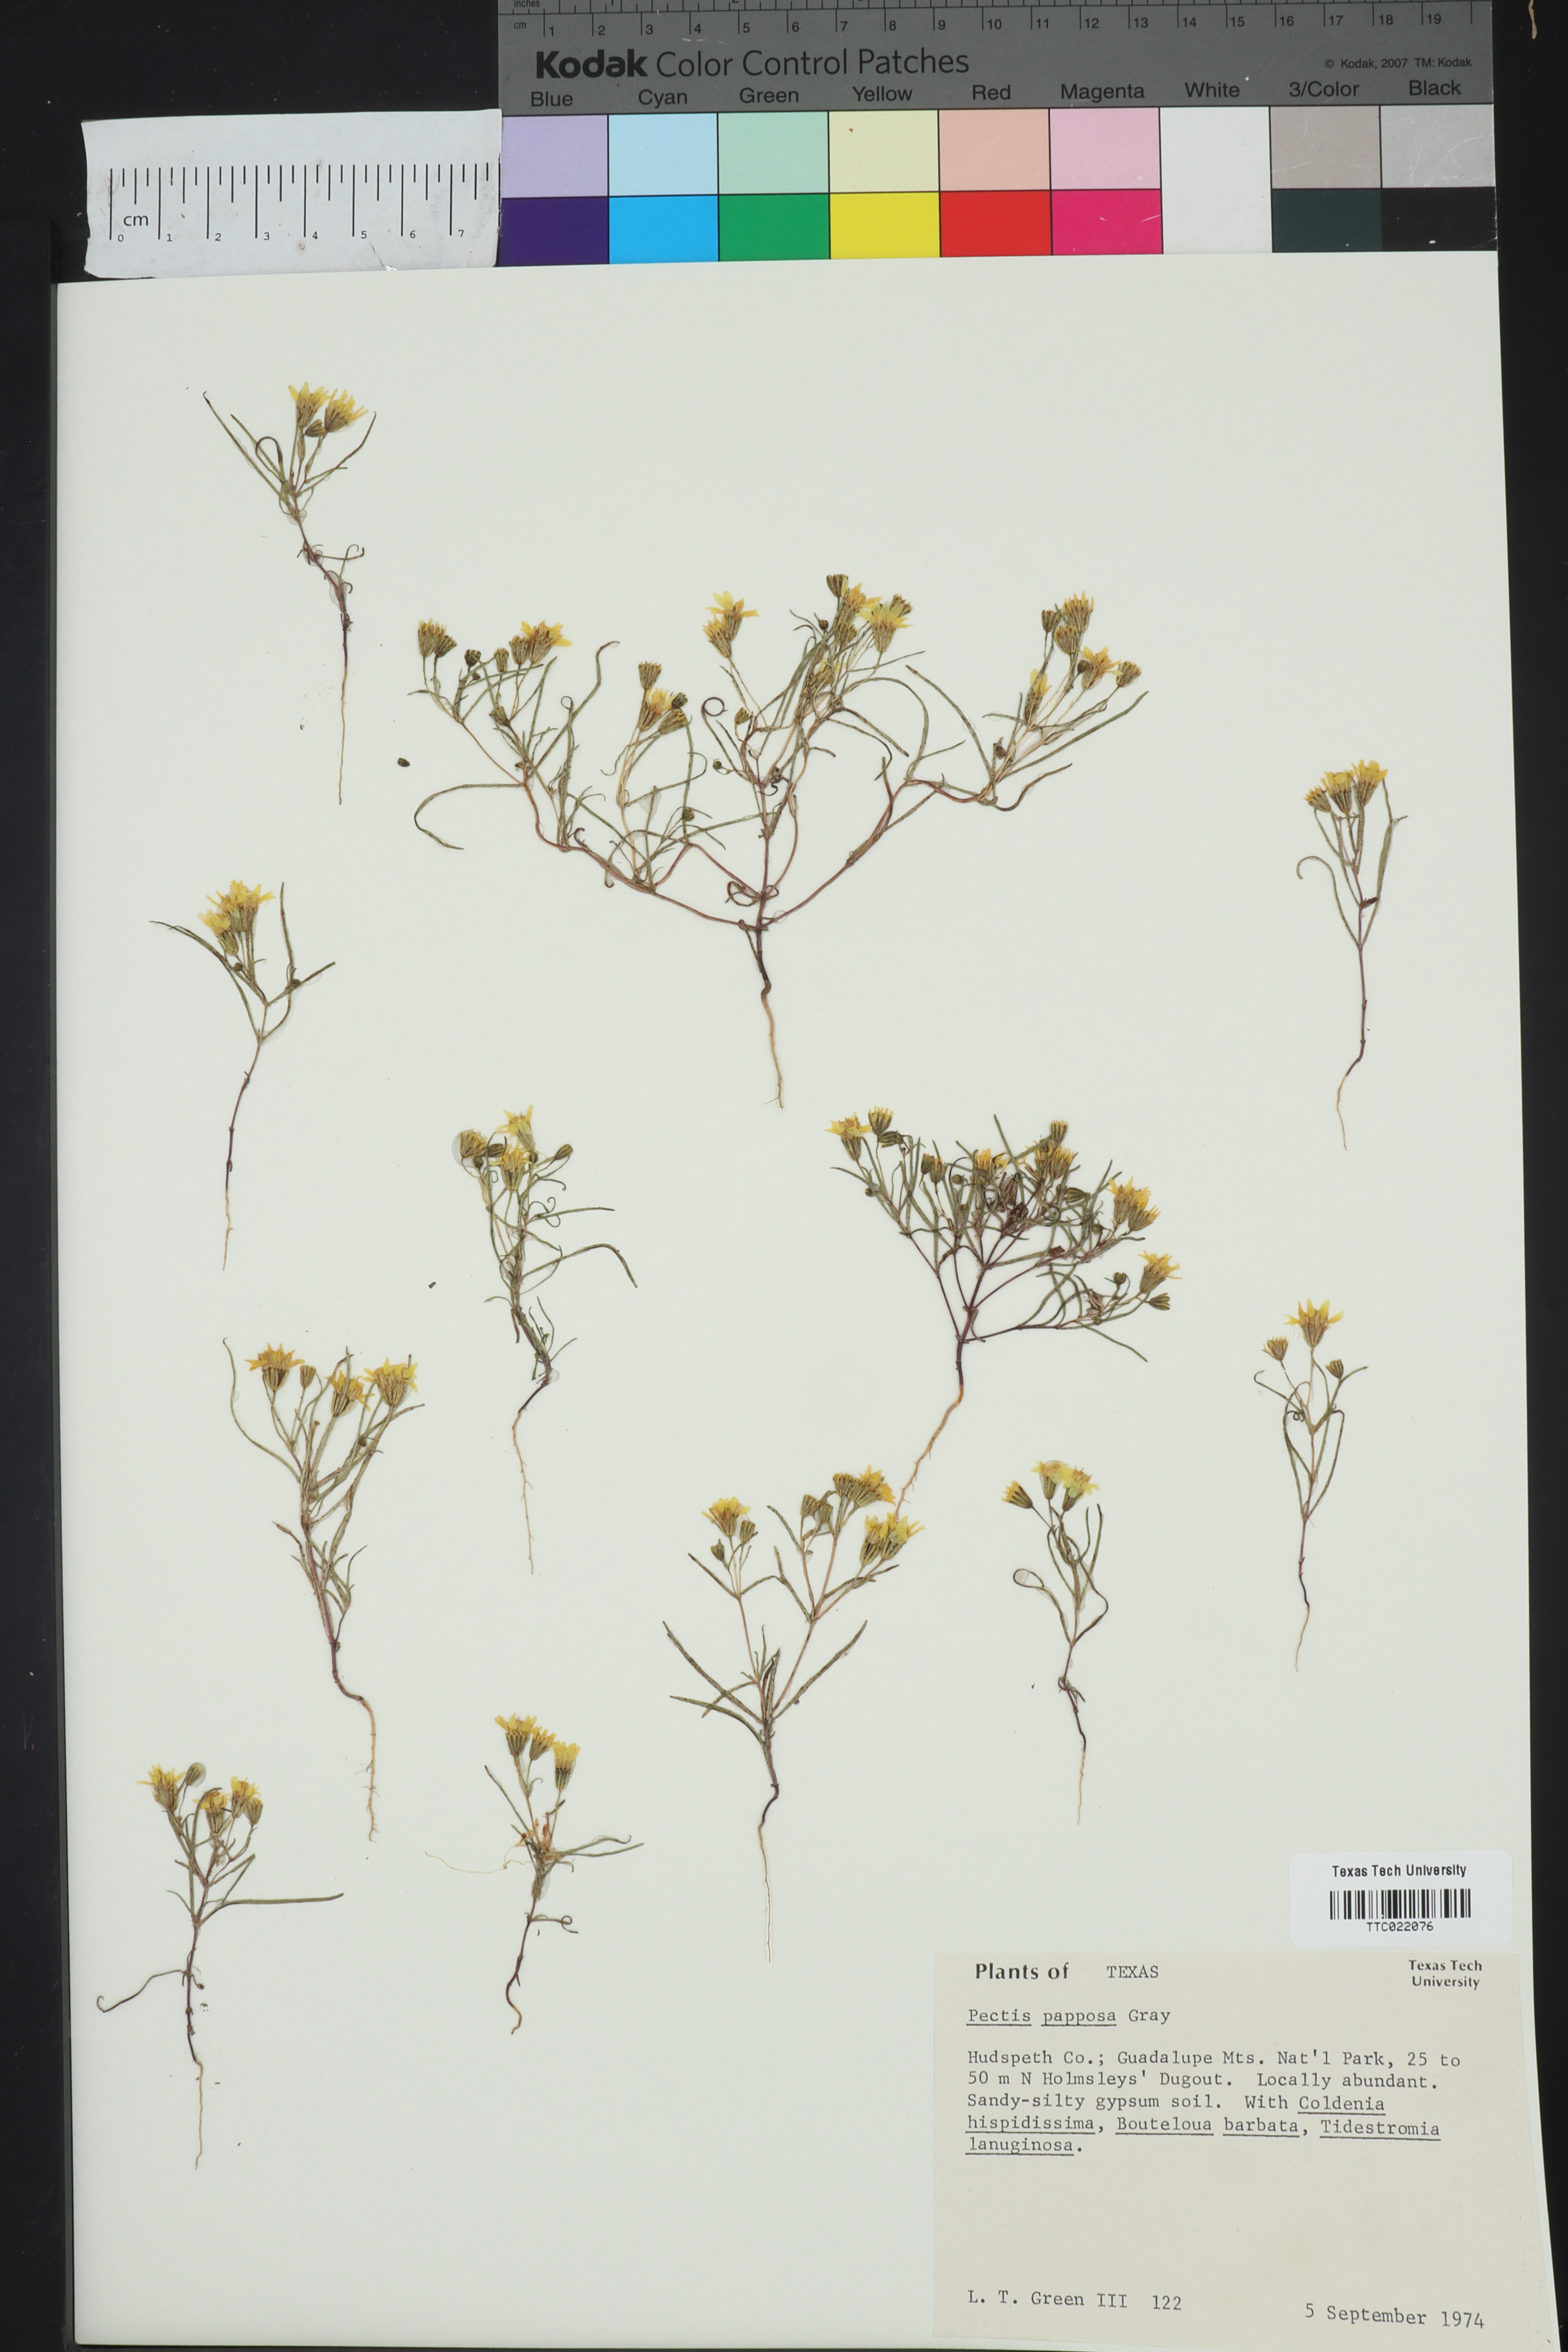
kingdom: Plantae
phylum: Tracheophyta
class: Magnoliopsida
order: Asterales
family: Asteraceae
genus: Pectis
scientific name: Pectis papposa
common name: Many-bristle chinchweed
